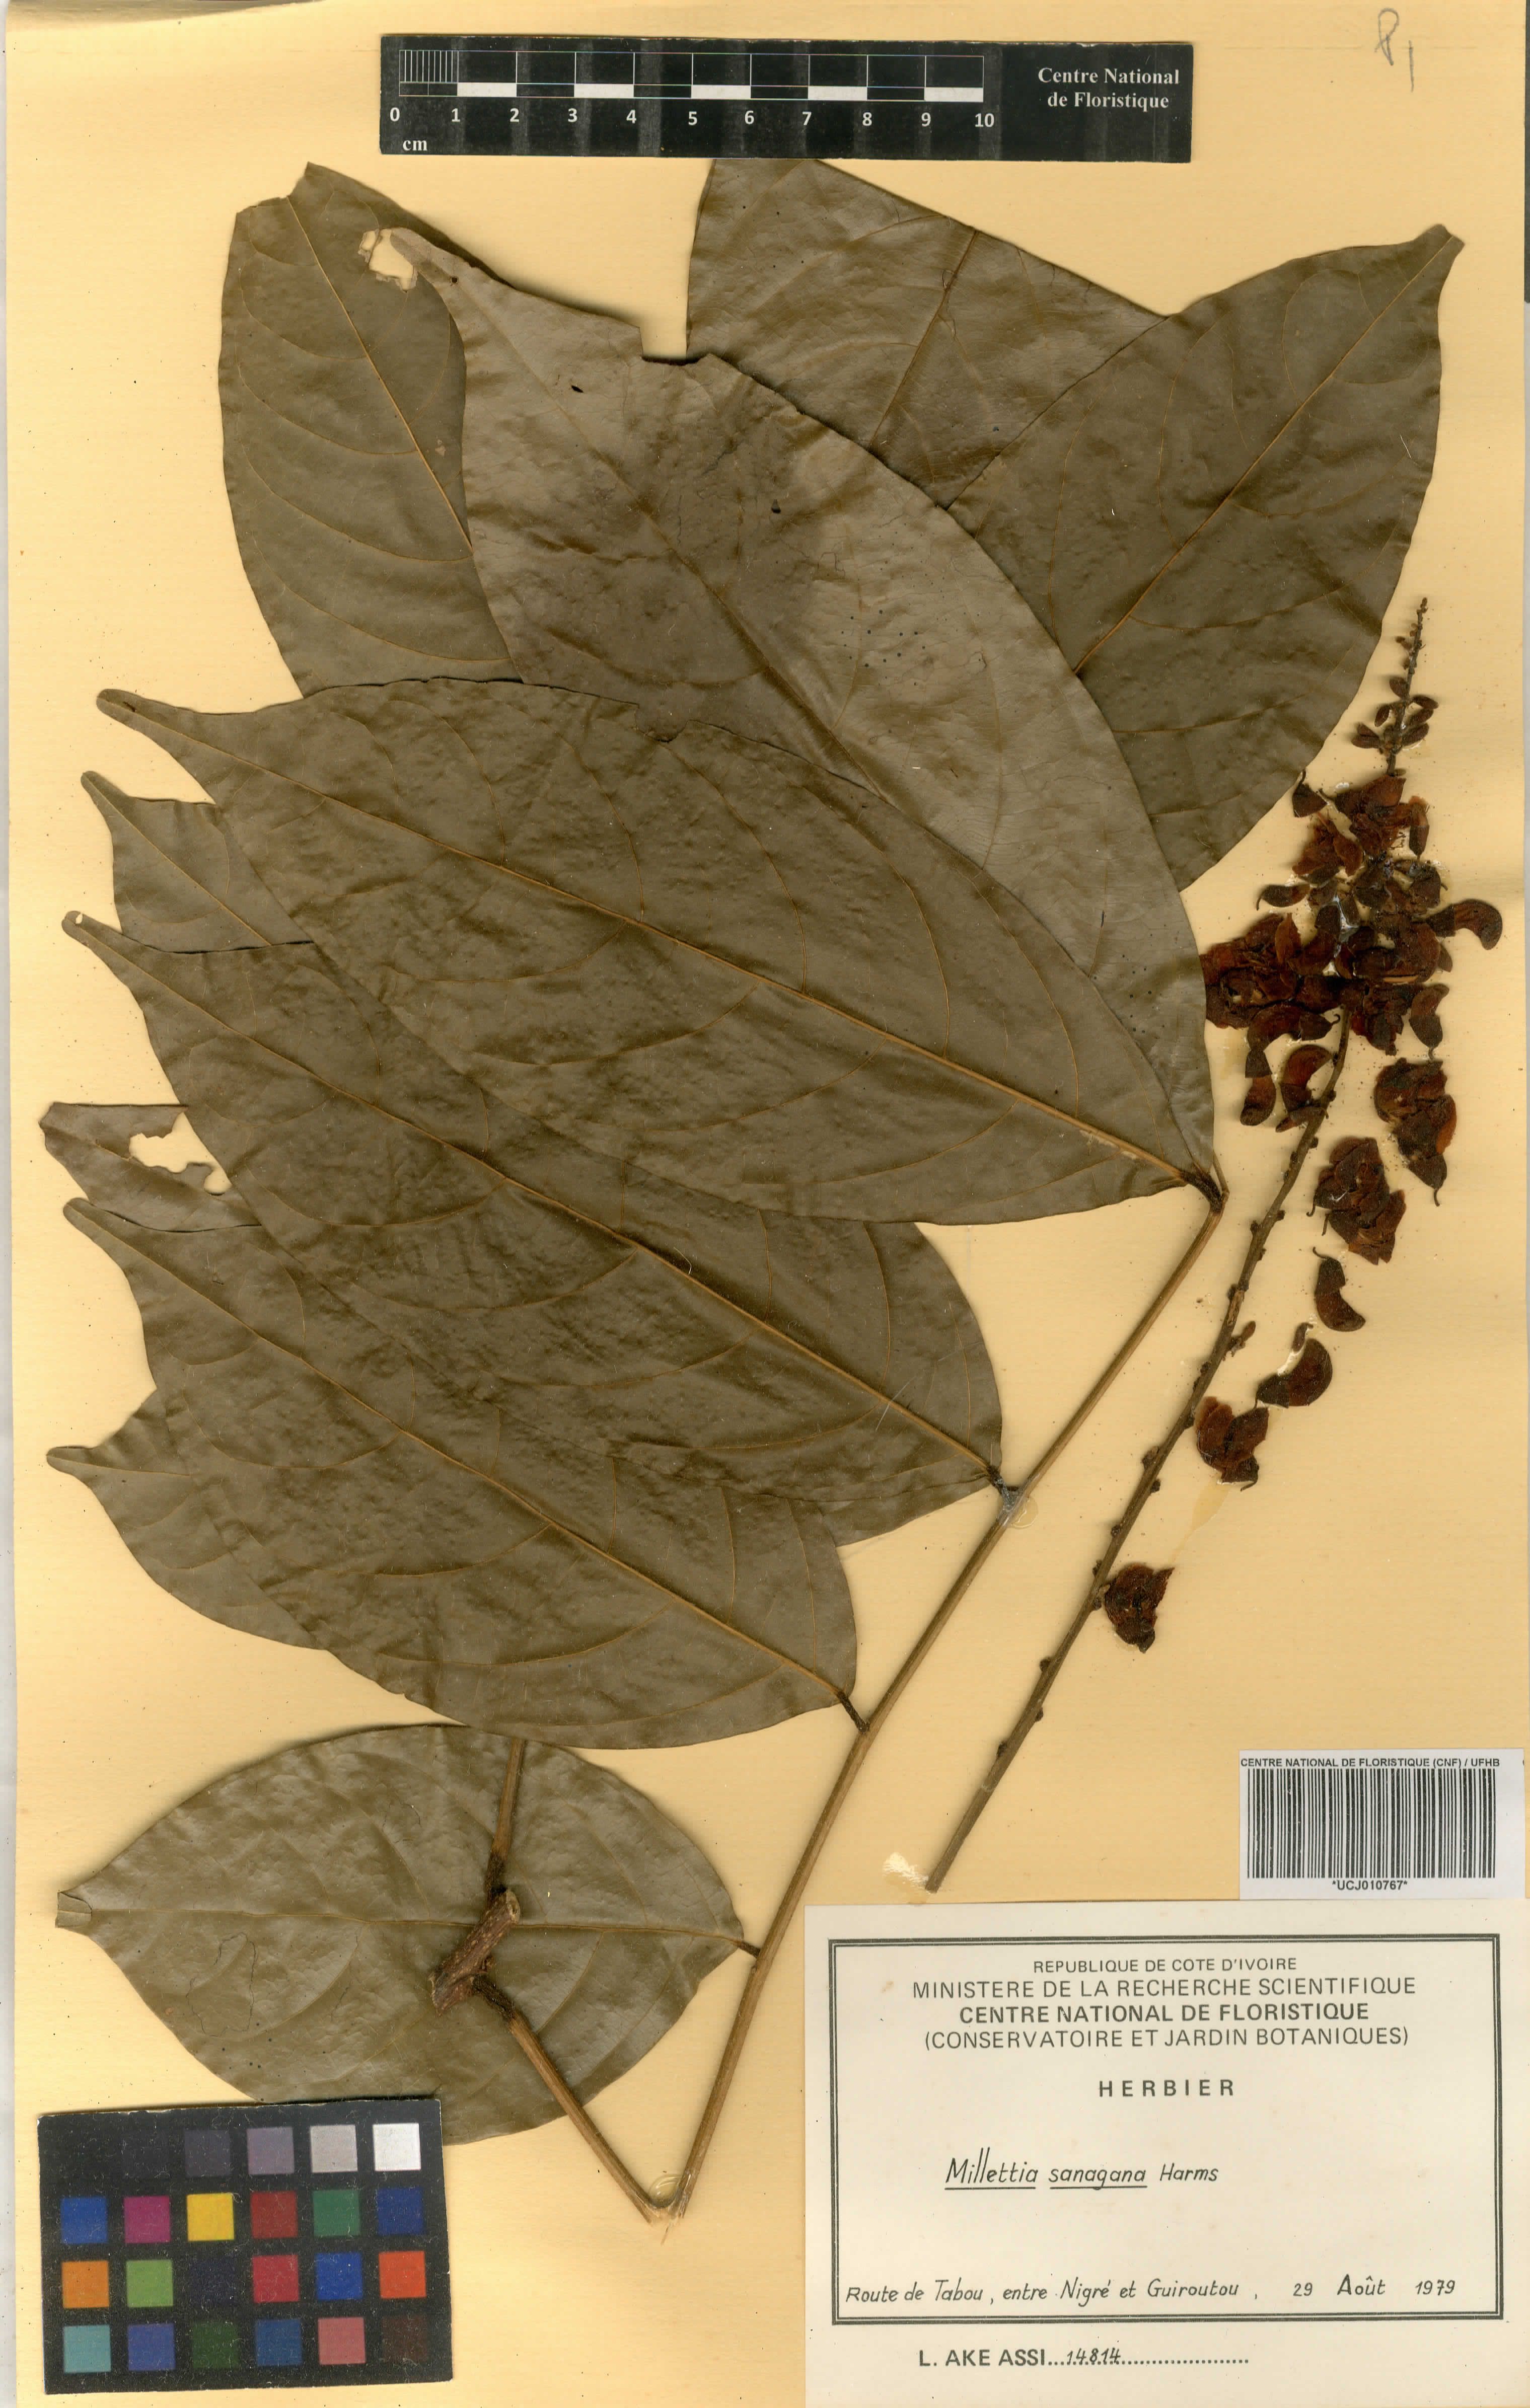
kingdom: Plantae
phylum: Tracheophyta
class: Magnoliopsida
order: Fabales
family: Fabaceae
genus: Millettia
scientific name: Millettia sanagana
